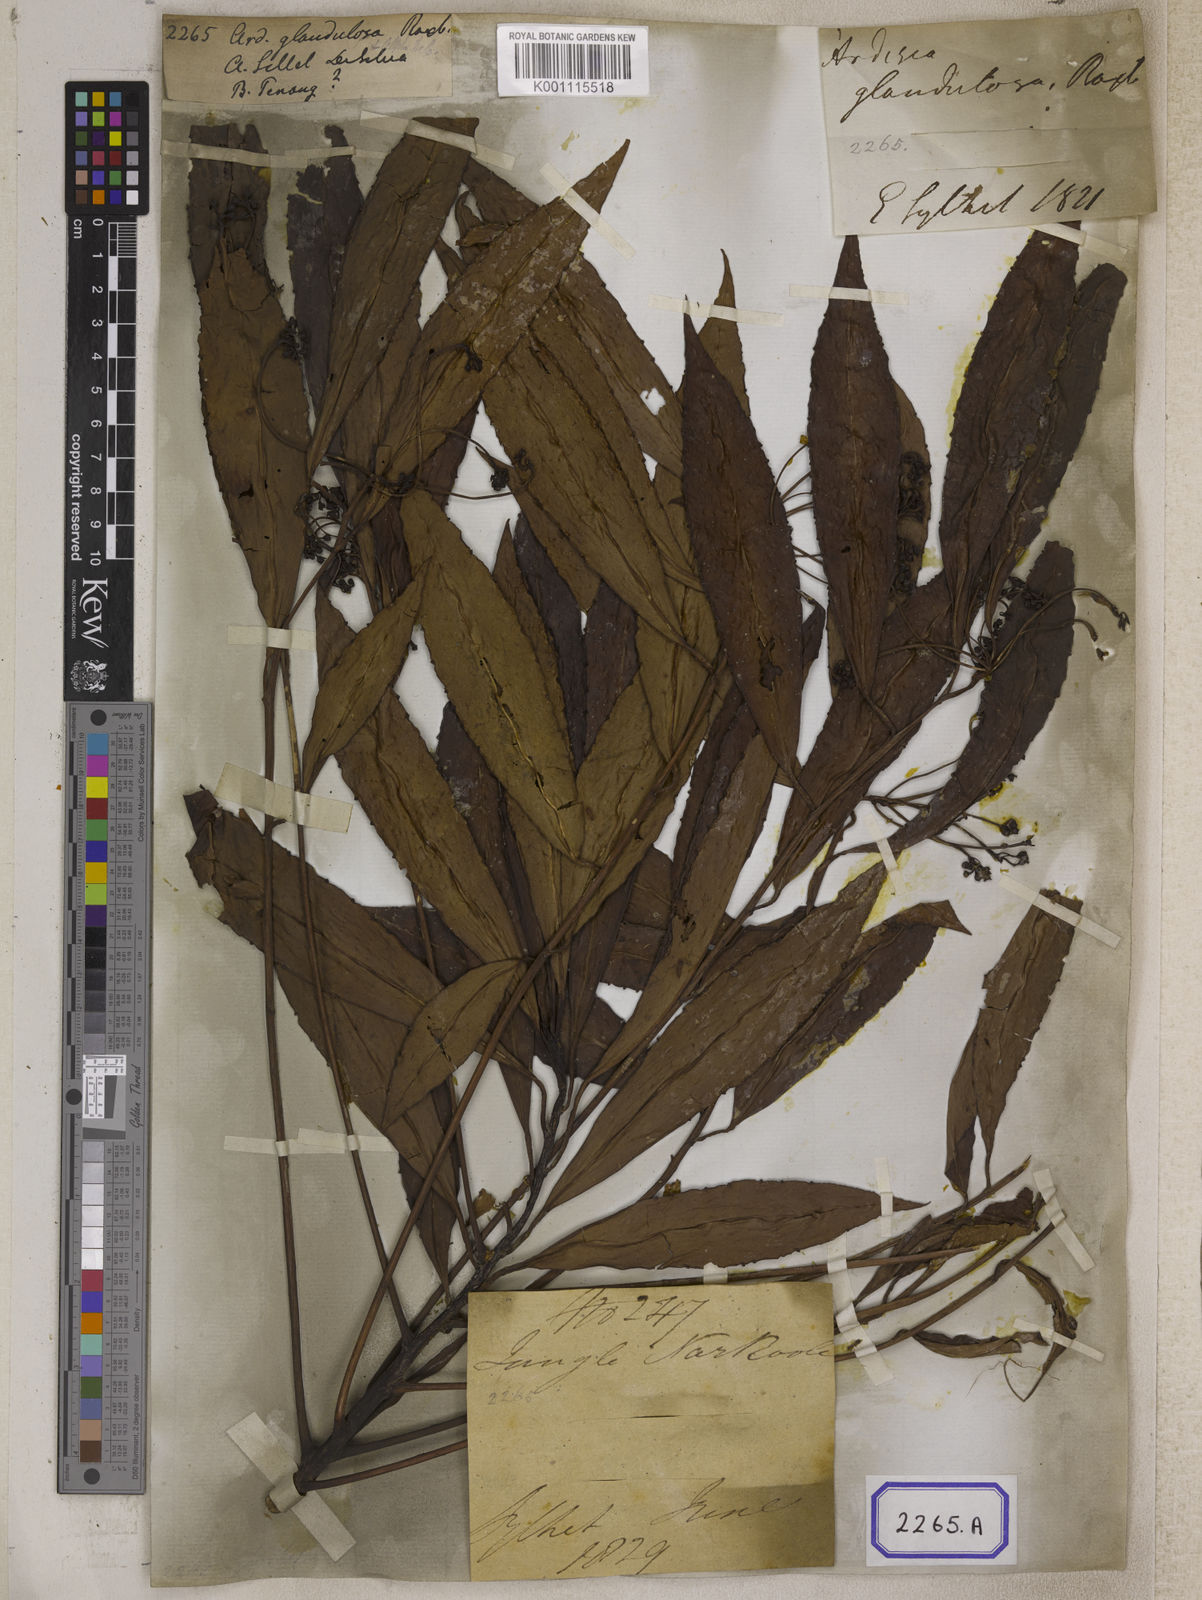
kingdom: Plantae
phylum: Tracheophyta
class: Magnoliopsida
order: Ericales
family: Primulaceae
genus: Amblyanthus
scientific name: Amblyanthus glandulosus
